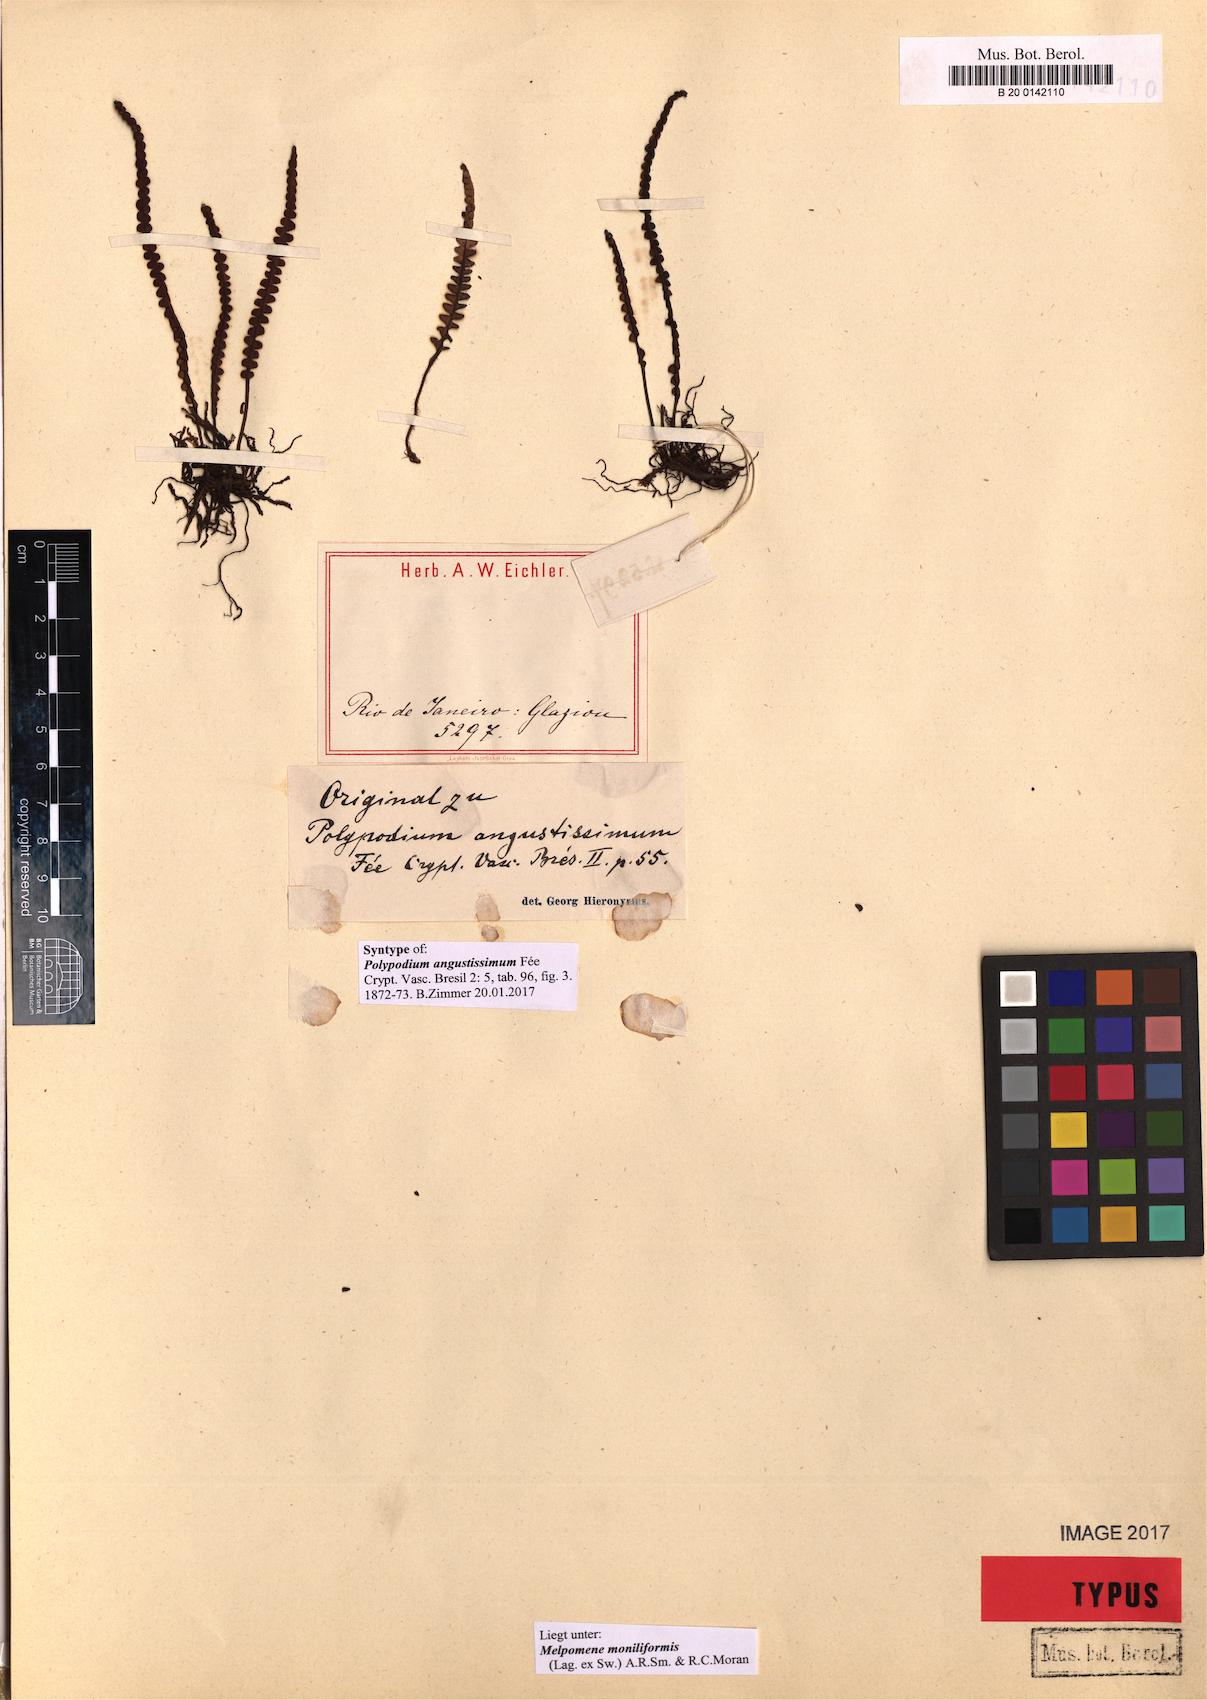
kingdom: Plantae
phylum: Tracheophyta
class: Polypodiopsida
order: Polypodiales
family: Polypodiaceae
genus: Melpomene
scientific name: Melpomene moniliformis
